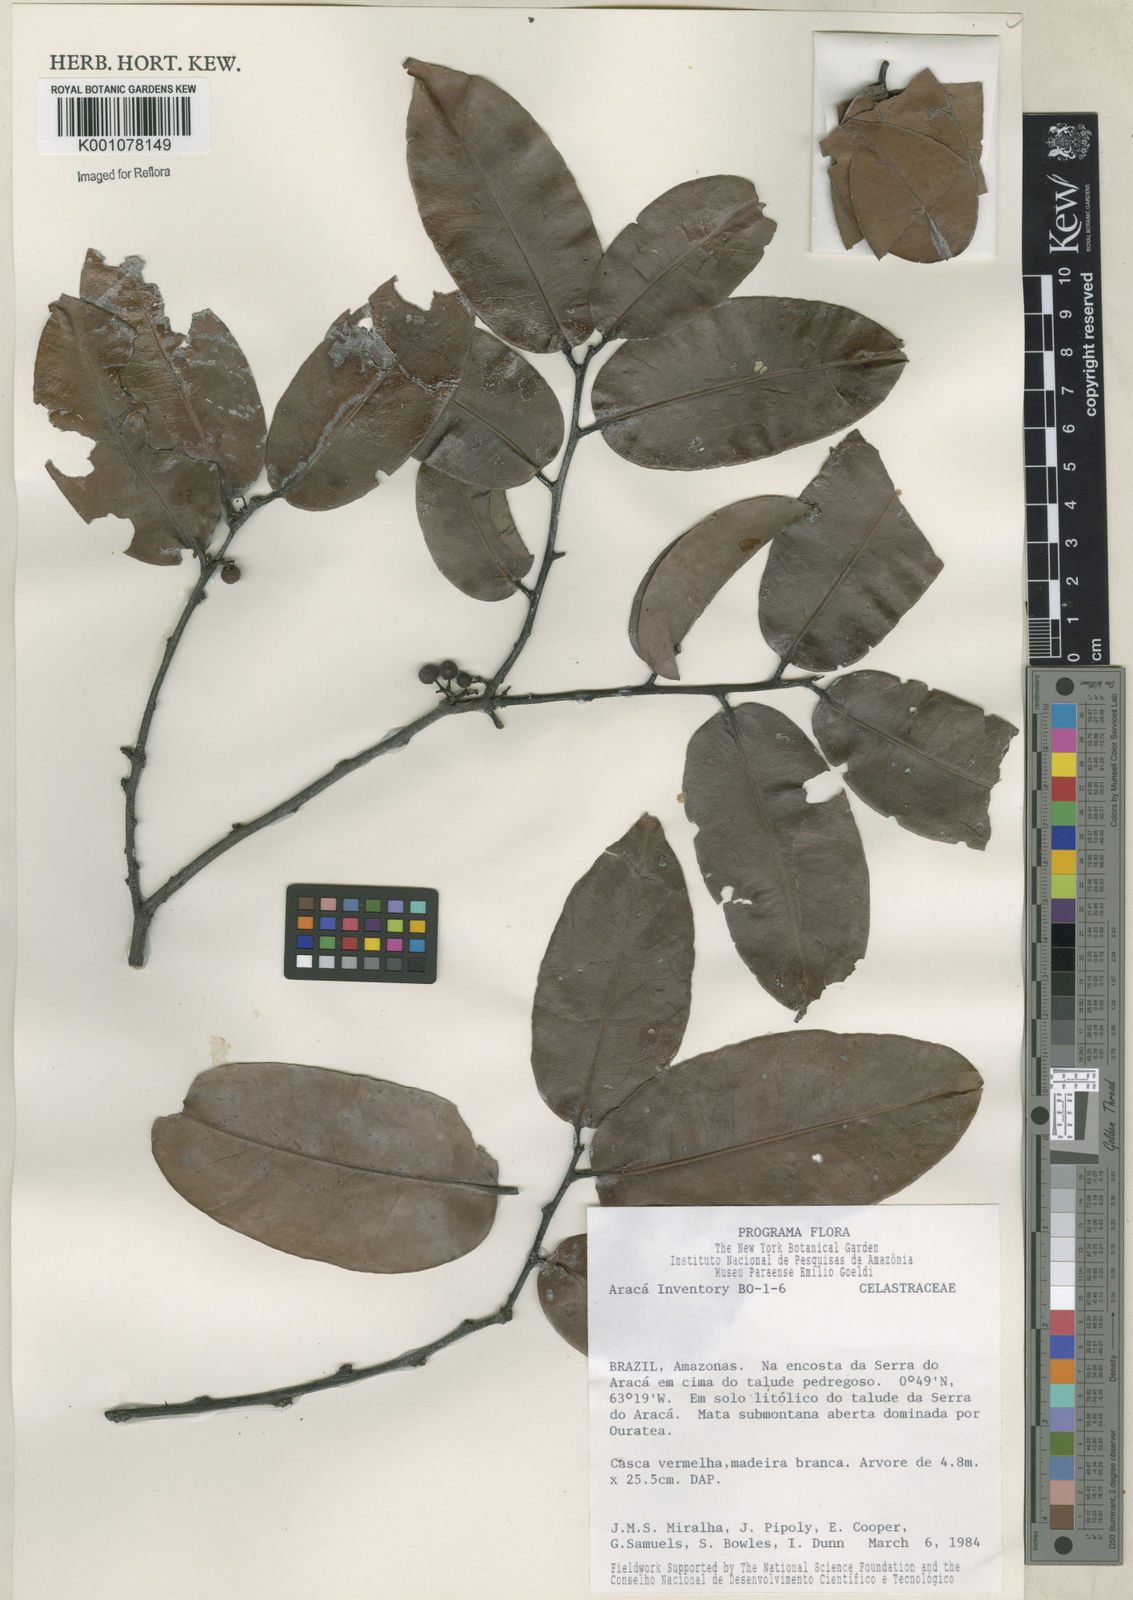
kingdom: Plantae
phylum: Tracheophyta
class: Magnoliopsida
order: Celastrales
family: Celastraceae
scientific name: Celastraceae
